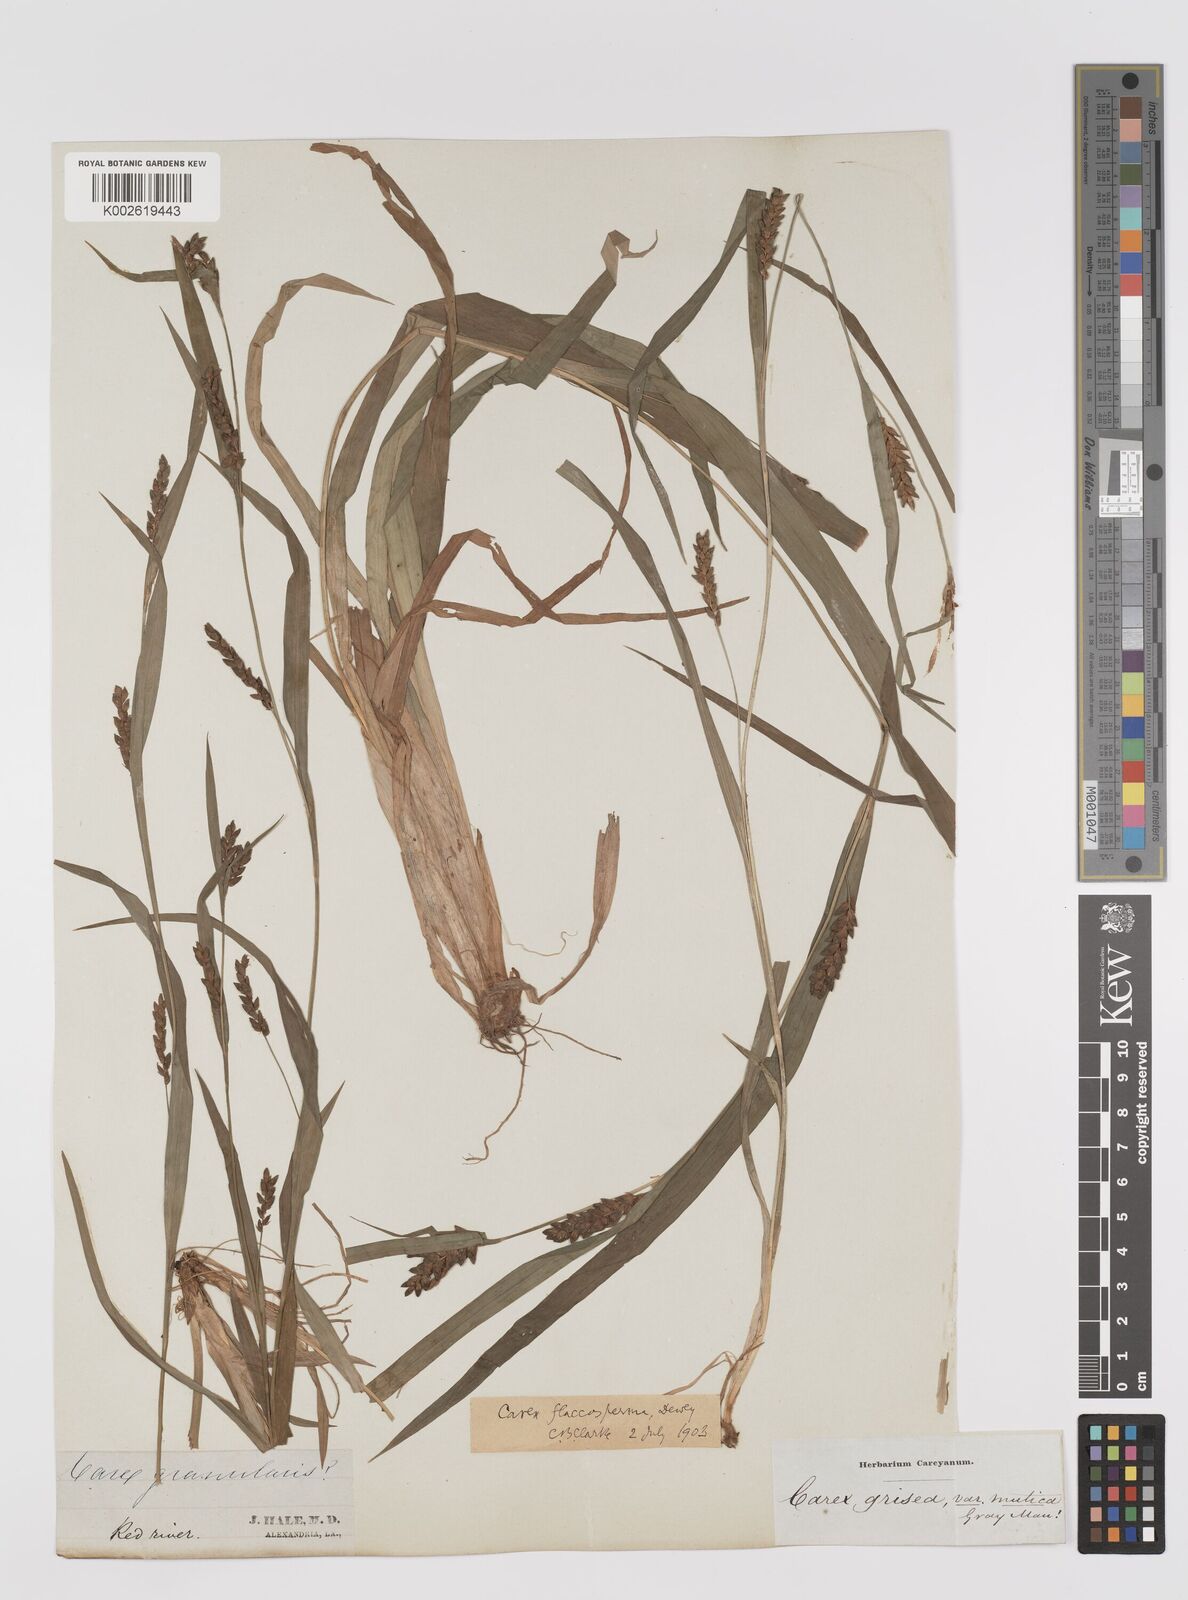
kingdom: Plantae
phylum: Tracheophyta
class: Liliopsida
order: Poales
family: Cyperaceae
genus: Carex
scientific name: Carex flaccosperma
